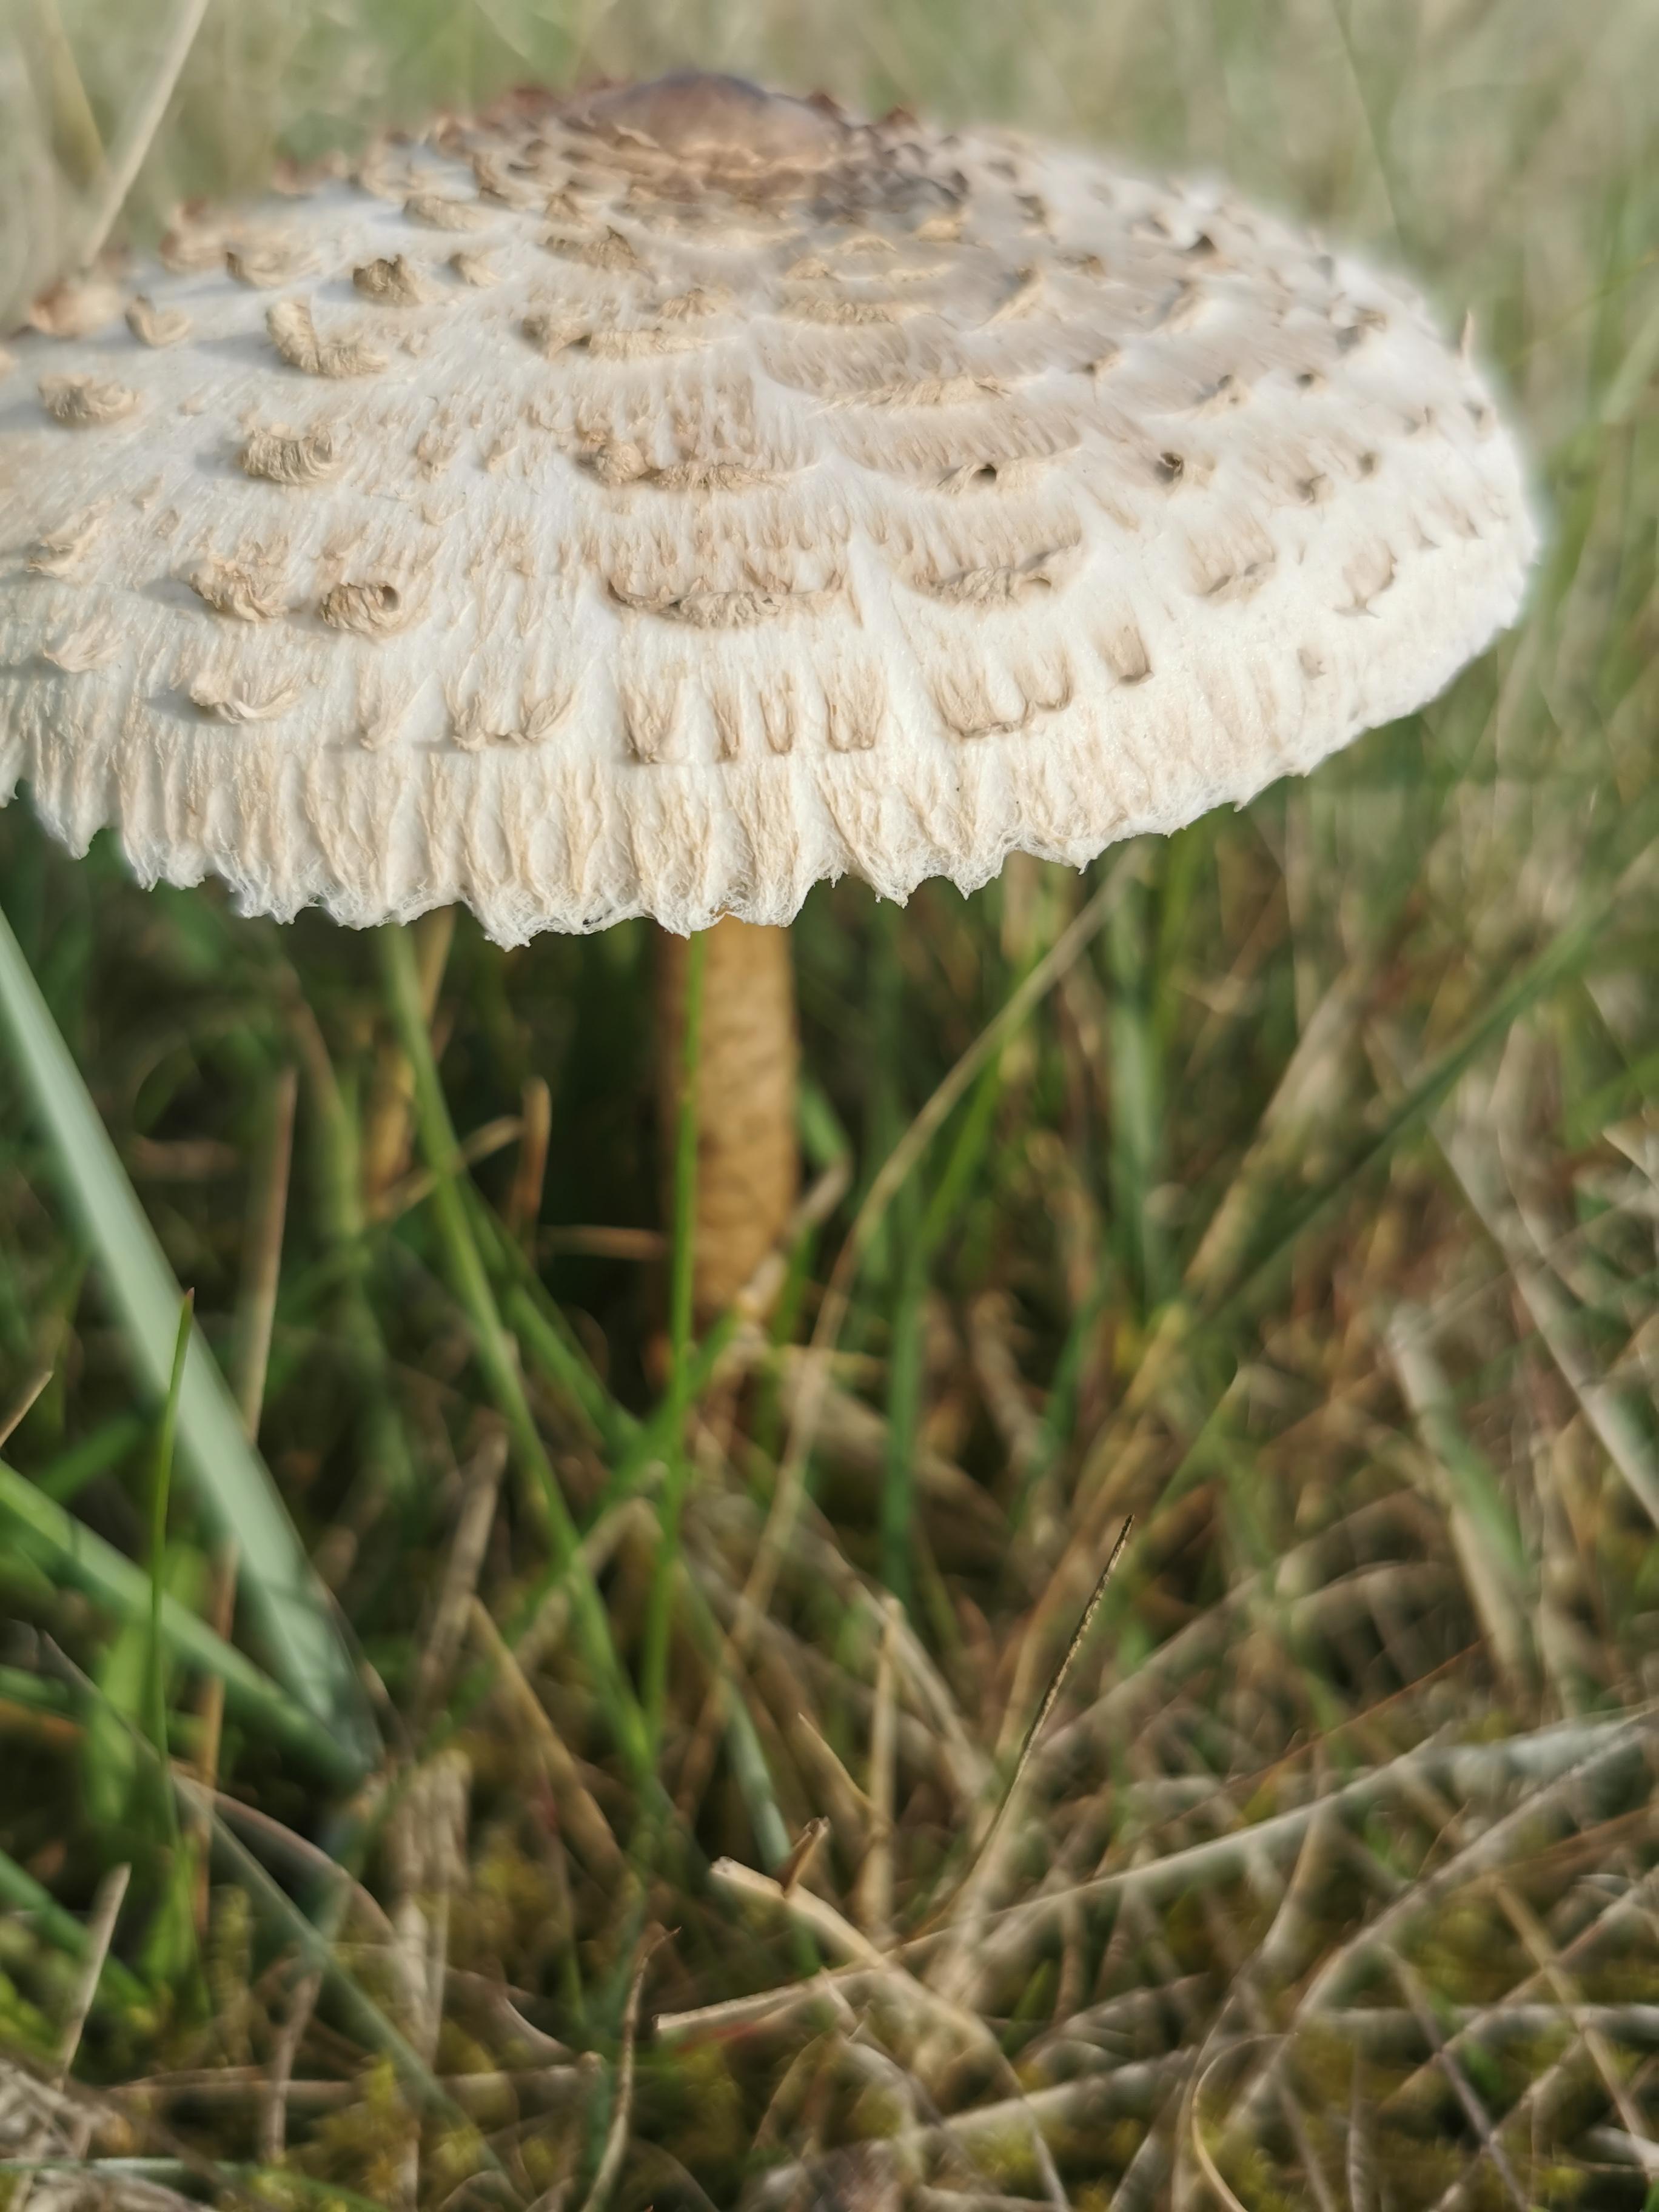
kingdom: Fungi
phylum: Basidiomycota
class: Agaricomycetes
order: Agaricales
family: Agaricaceae
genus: Macrolepiota
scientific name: Macrolepiota procera
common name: stor kæmpeparasolhat
